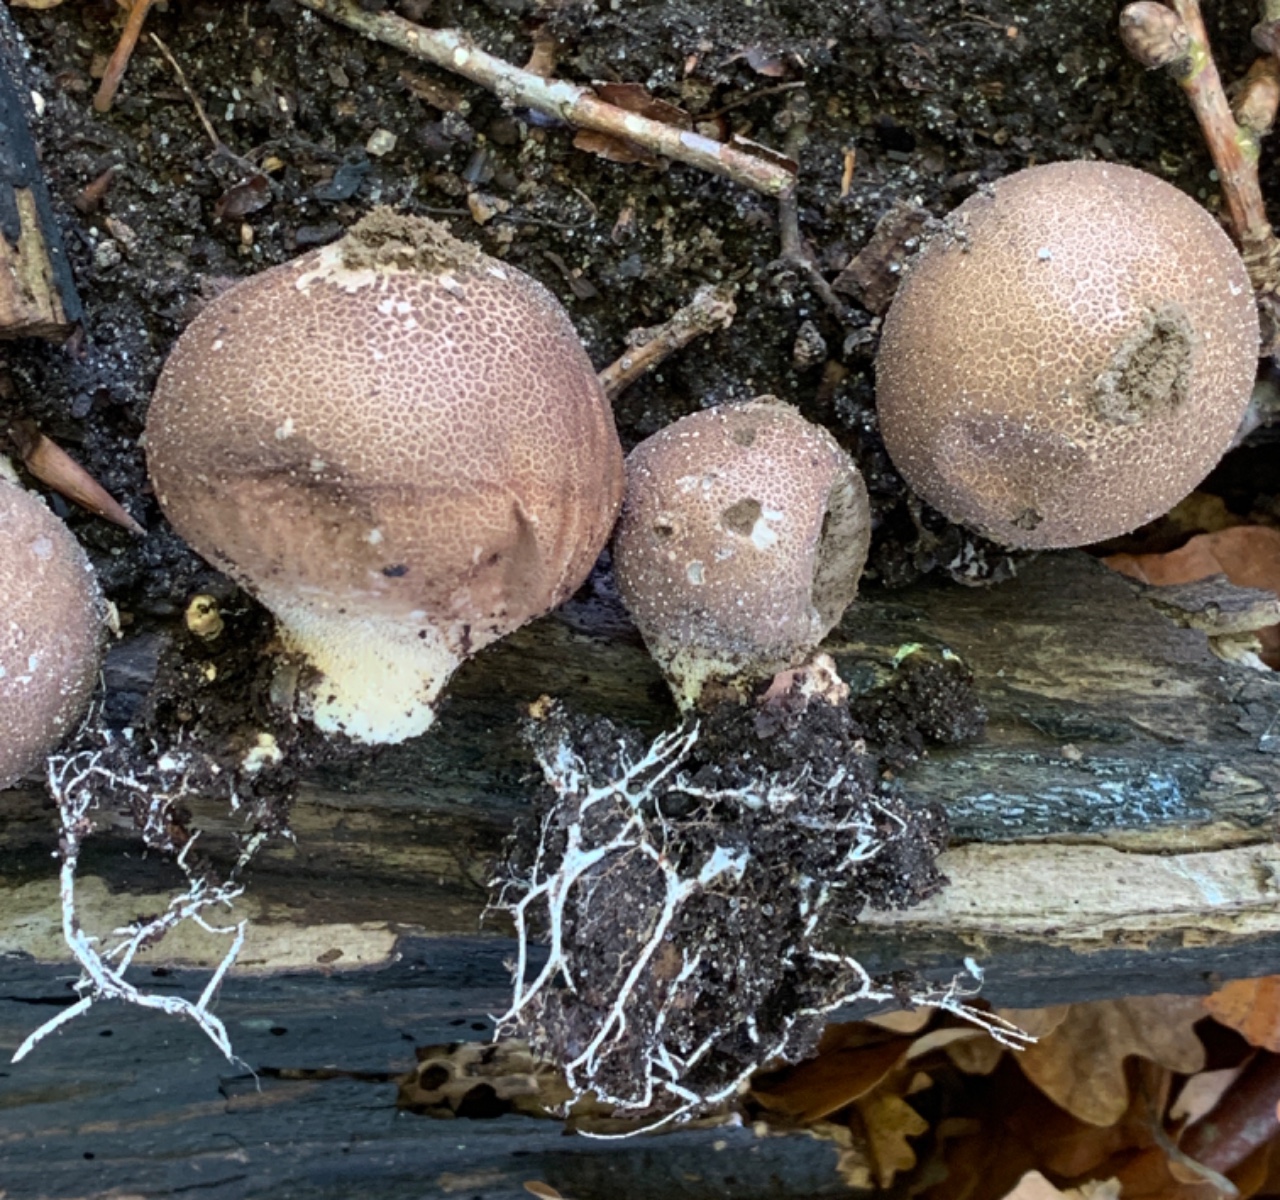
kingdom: Fungi
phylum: Basidiomycota
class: Agaricomycetes
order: Agaricales
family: Lycoperdaceae
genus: Apioperdon
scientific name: Apioperdon pyriforme
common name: pære-støvbold
